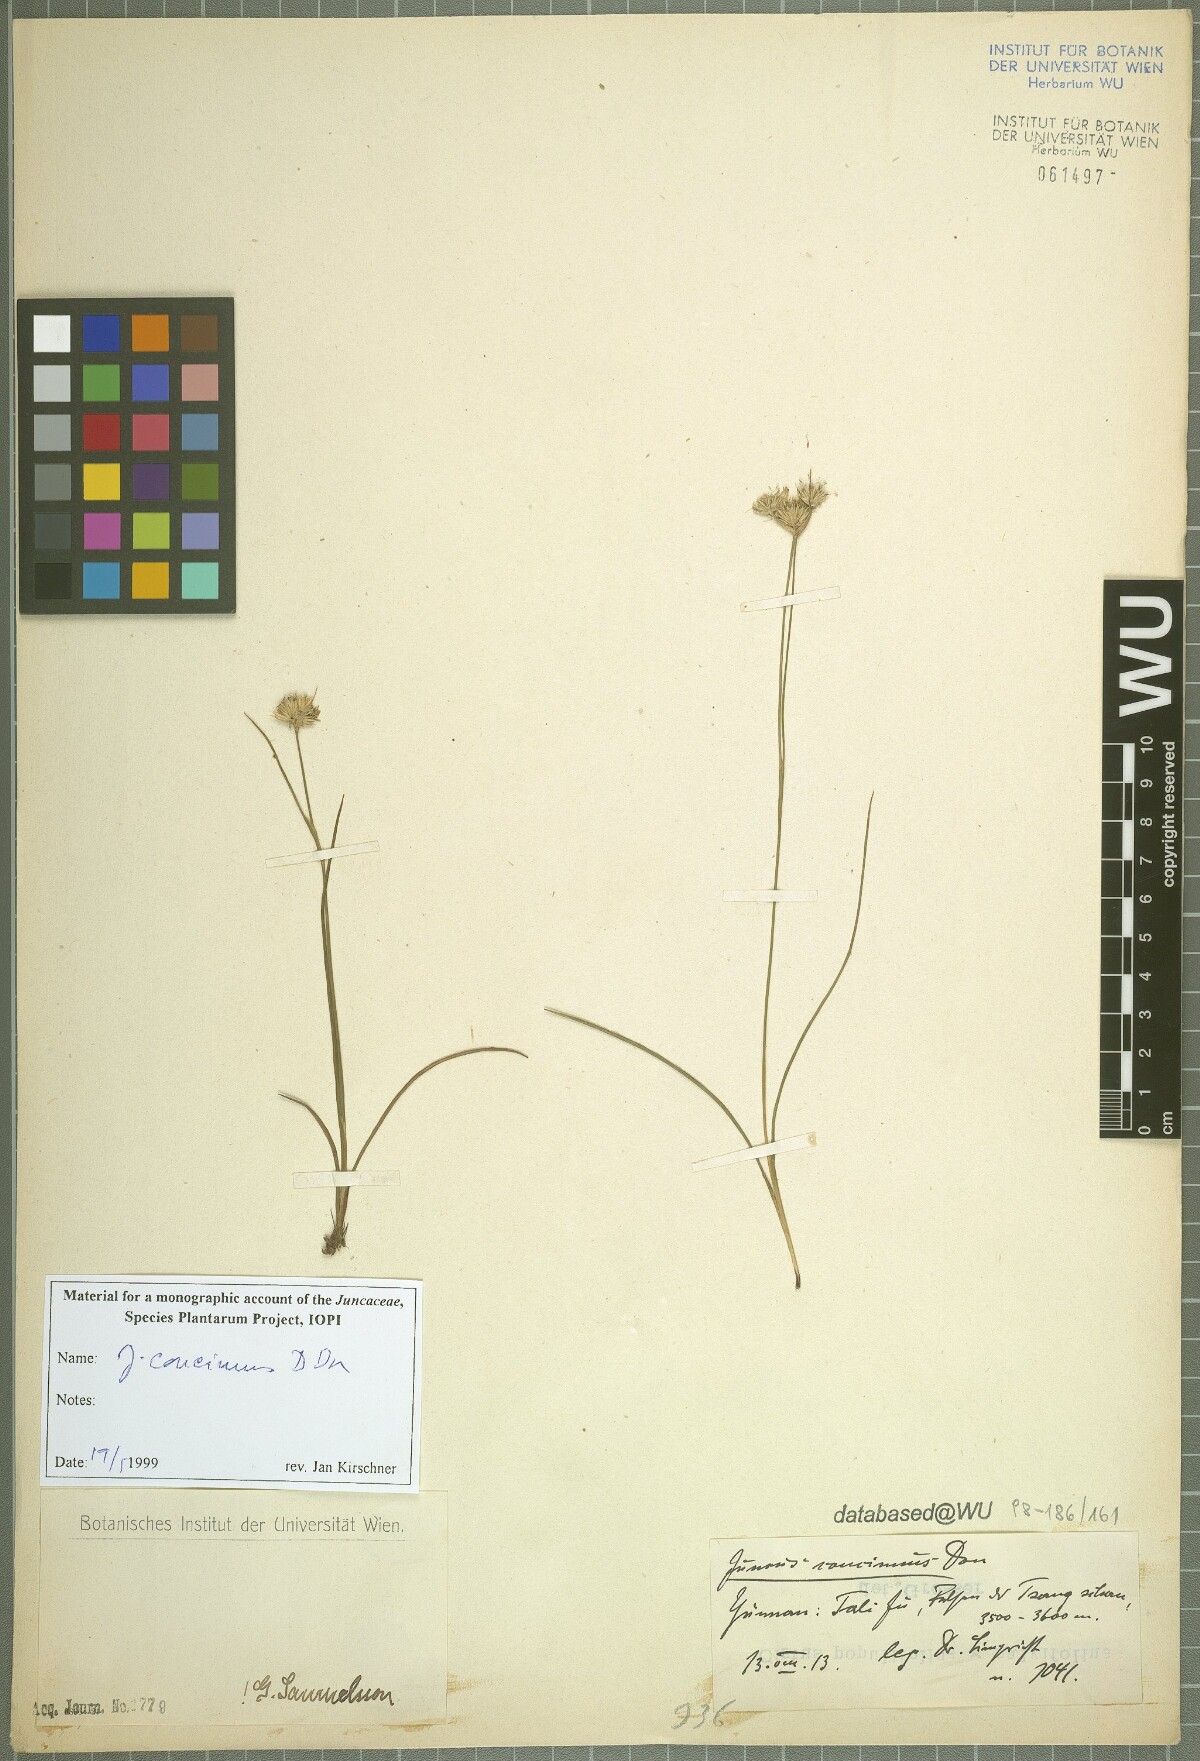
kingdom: Plantae
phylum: Tracheophyta
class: Liliopsida
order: Poales
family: Juncaceae
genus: Juncus
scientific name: Juncus concinnus
